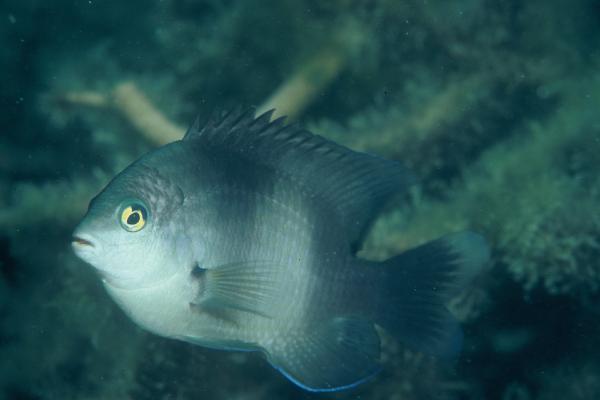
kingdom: Animalia
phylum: Chordata
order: Perciformes
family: Pomacentridae
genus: Stegastes
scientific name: Stegastes nigricans
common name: Dusky gregory
